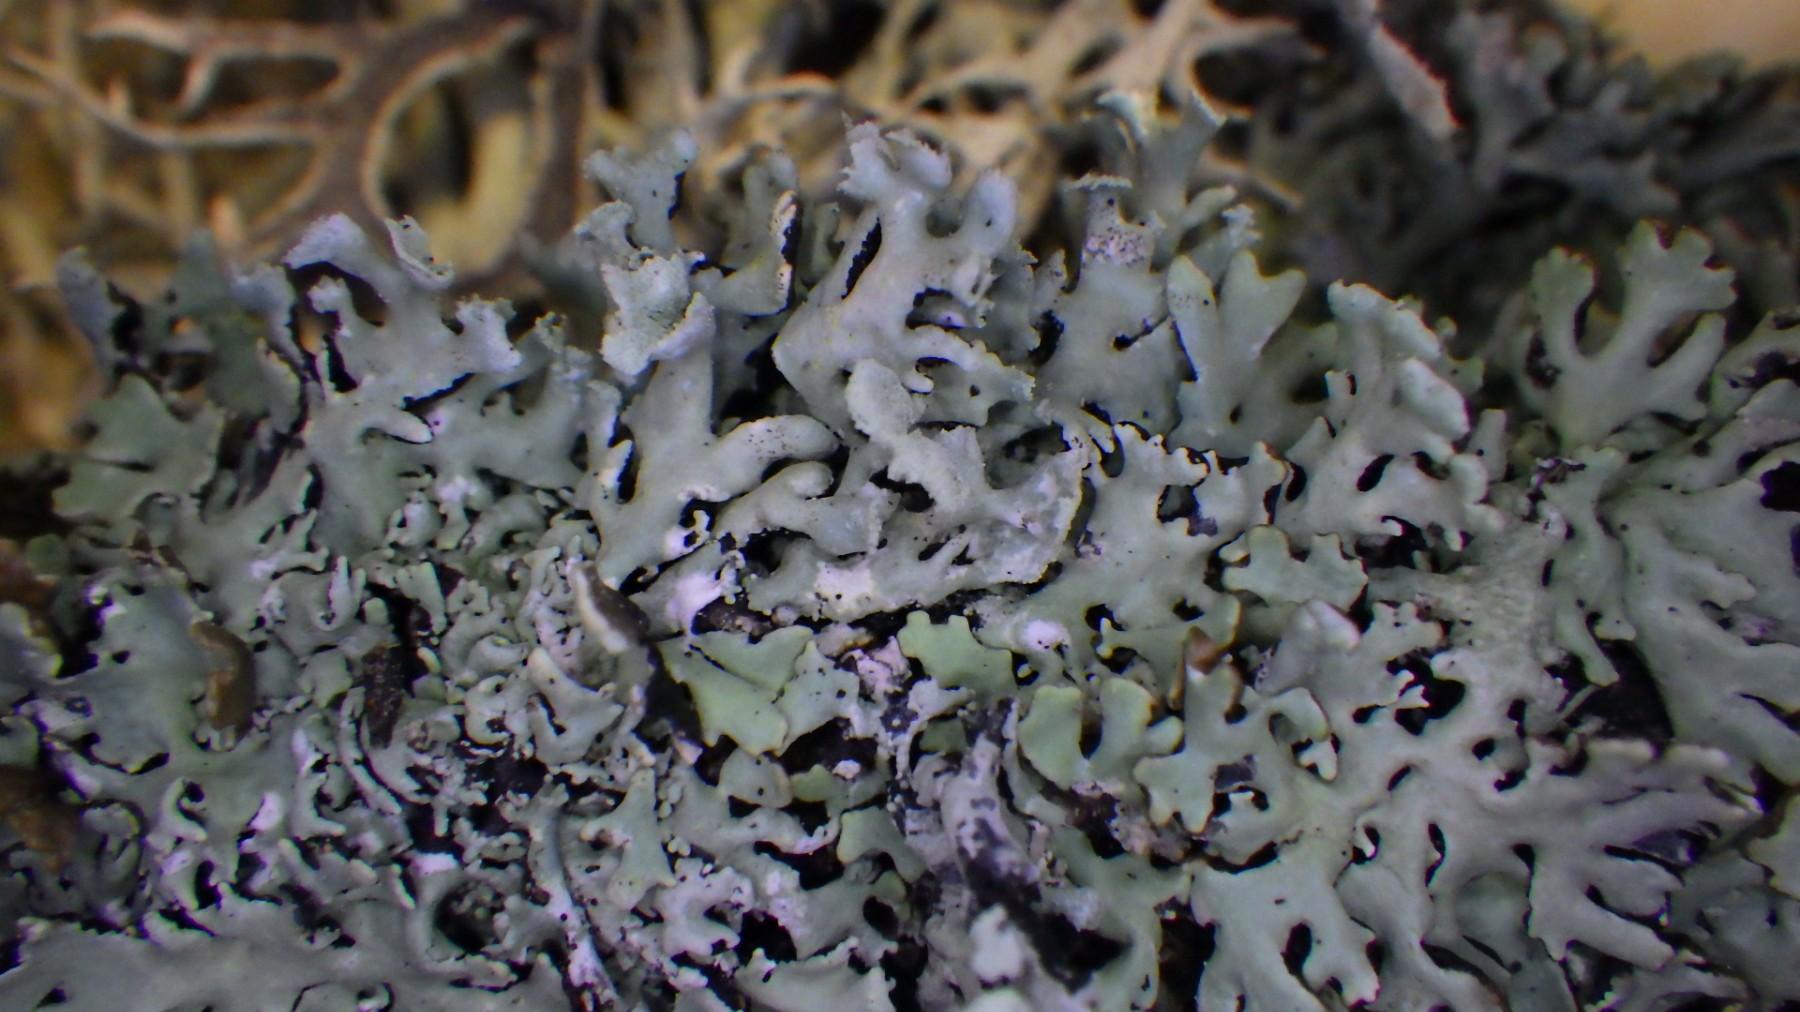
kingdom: Fungi
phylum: Ascomycota
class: Lecanoromycetes
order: Lecanorales
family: Parmeliaceae
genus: Hypogymnia
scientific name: Hypogymnia physodes
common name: almindelig kvistlav
